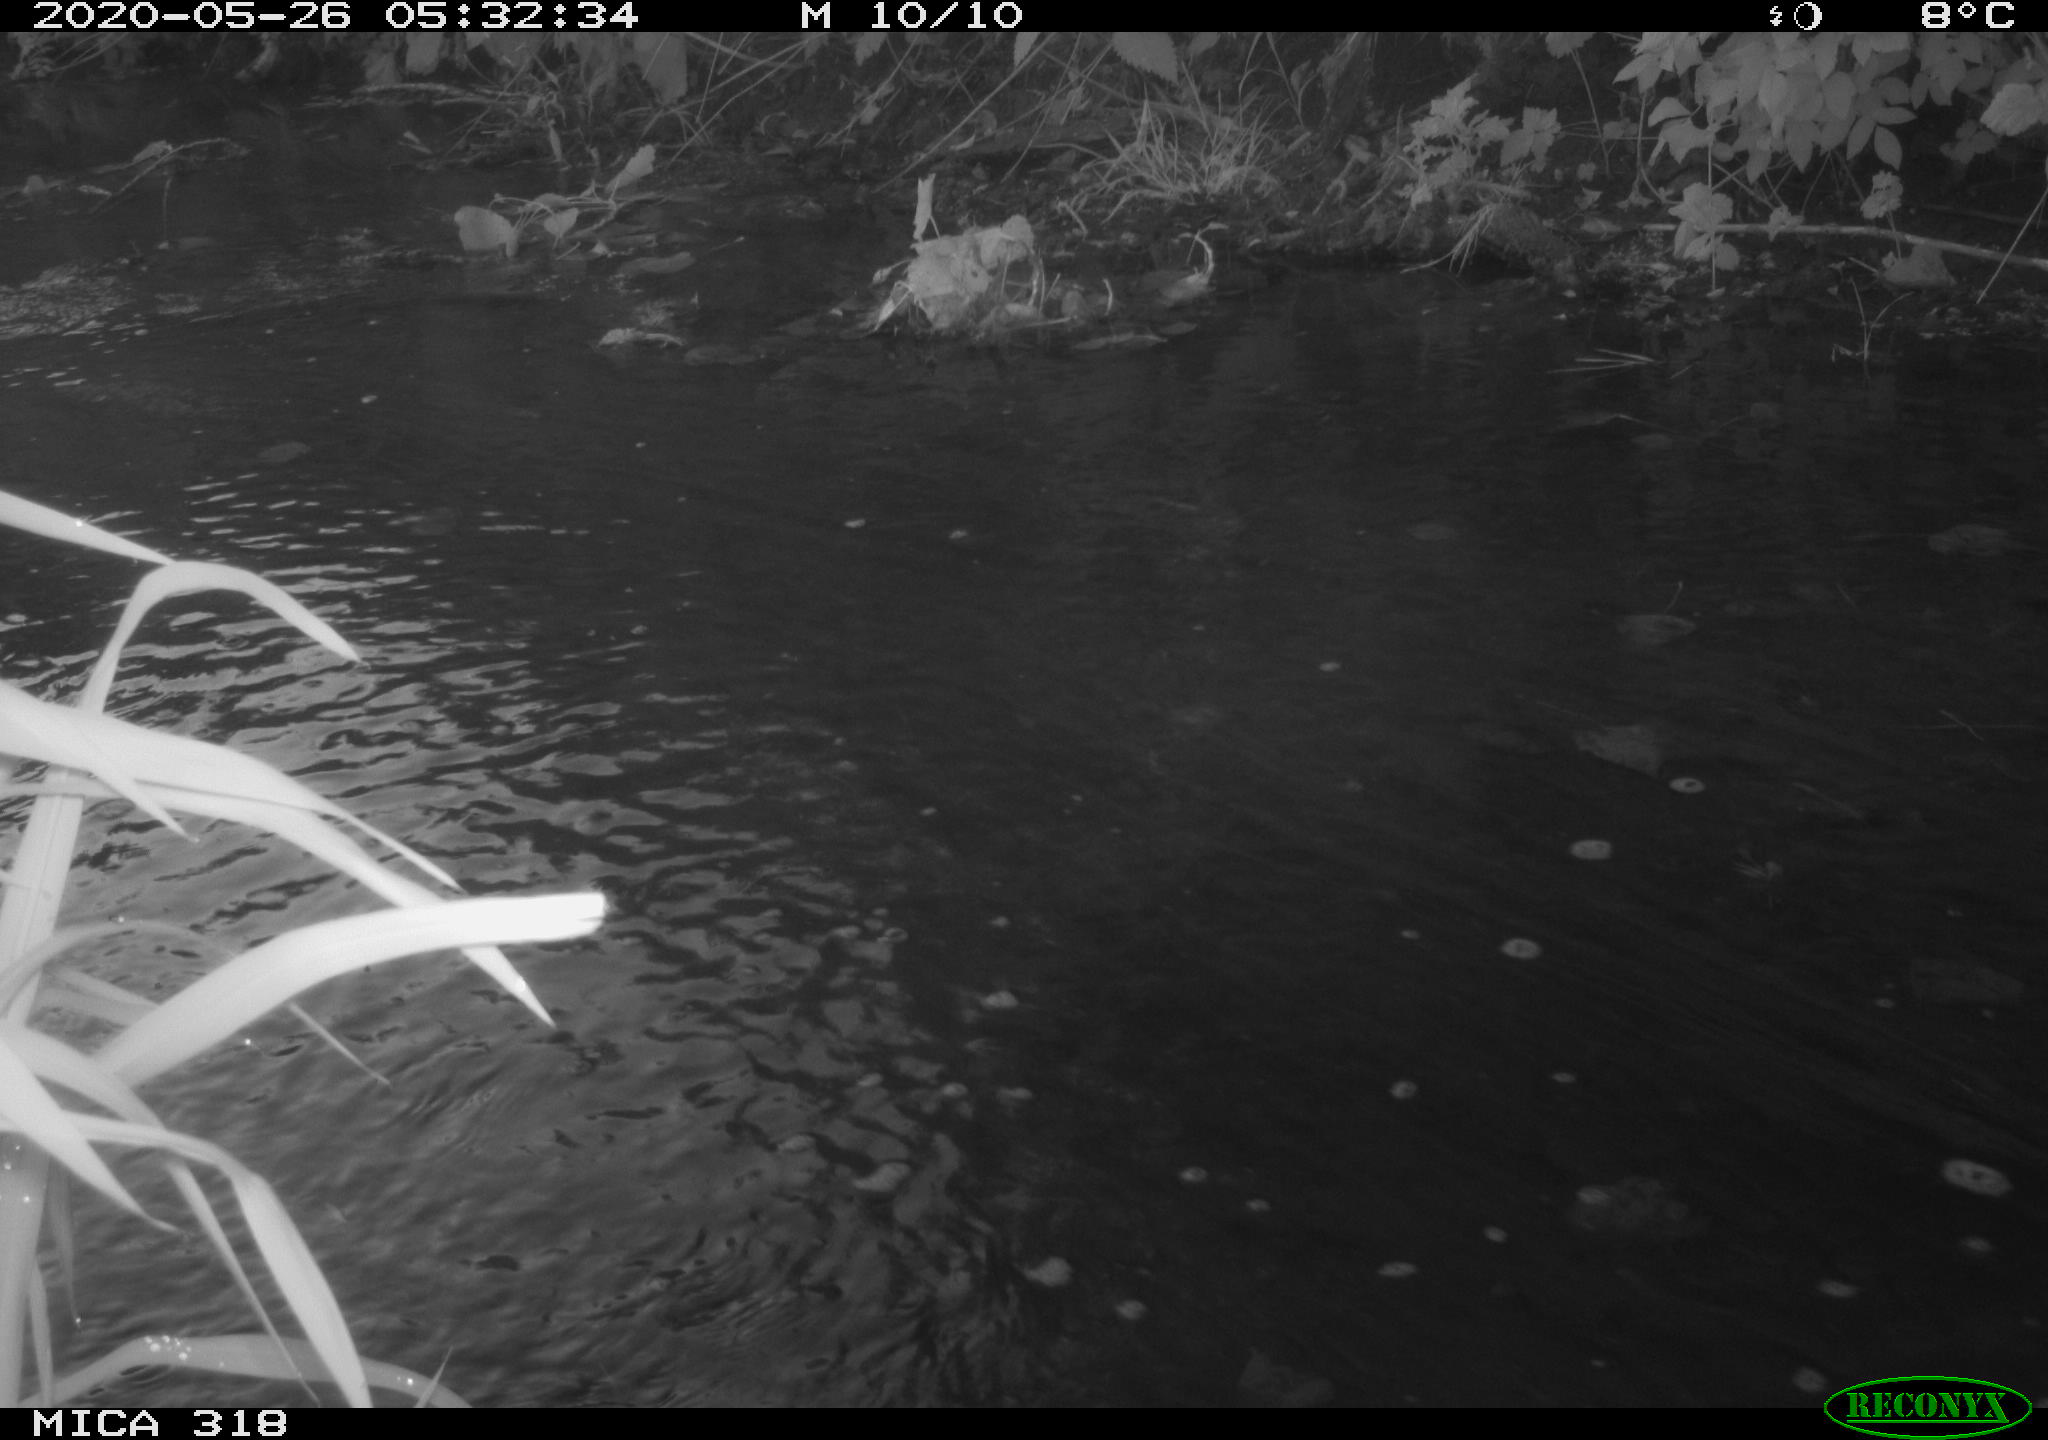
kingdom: Animalia
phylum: Chordata
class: Aves
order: Gruiformes
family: Rallidae
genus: Gallinula
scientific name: Gallinula chloropus
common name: Common moorhen
